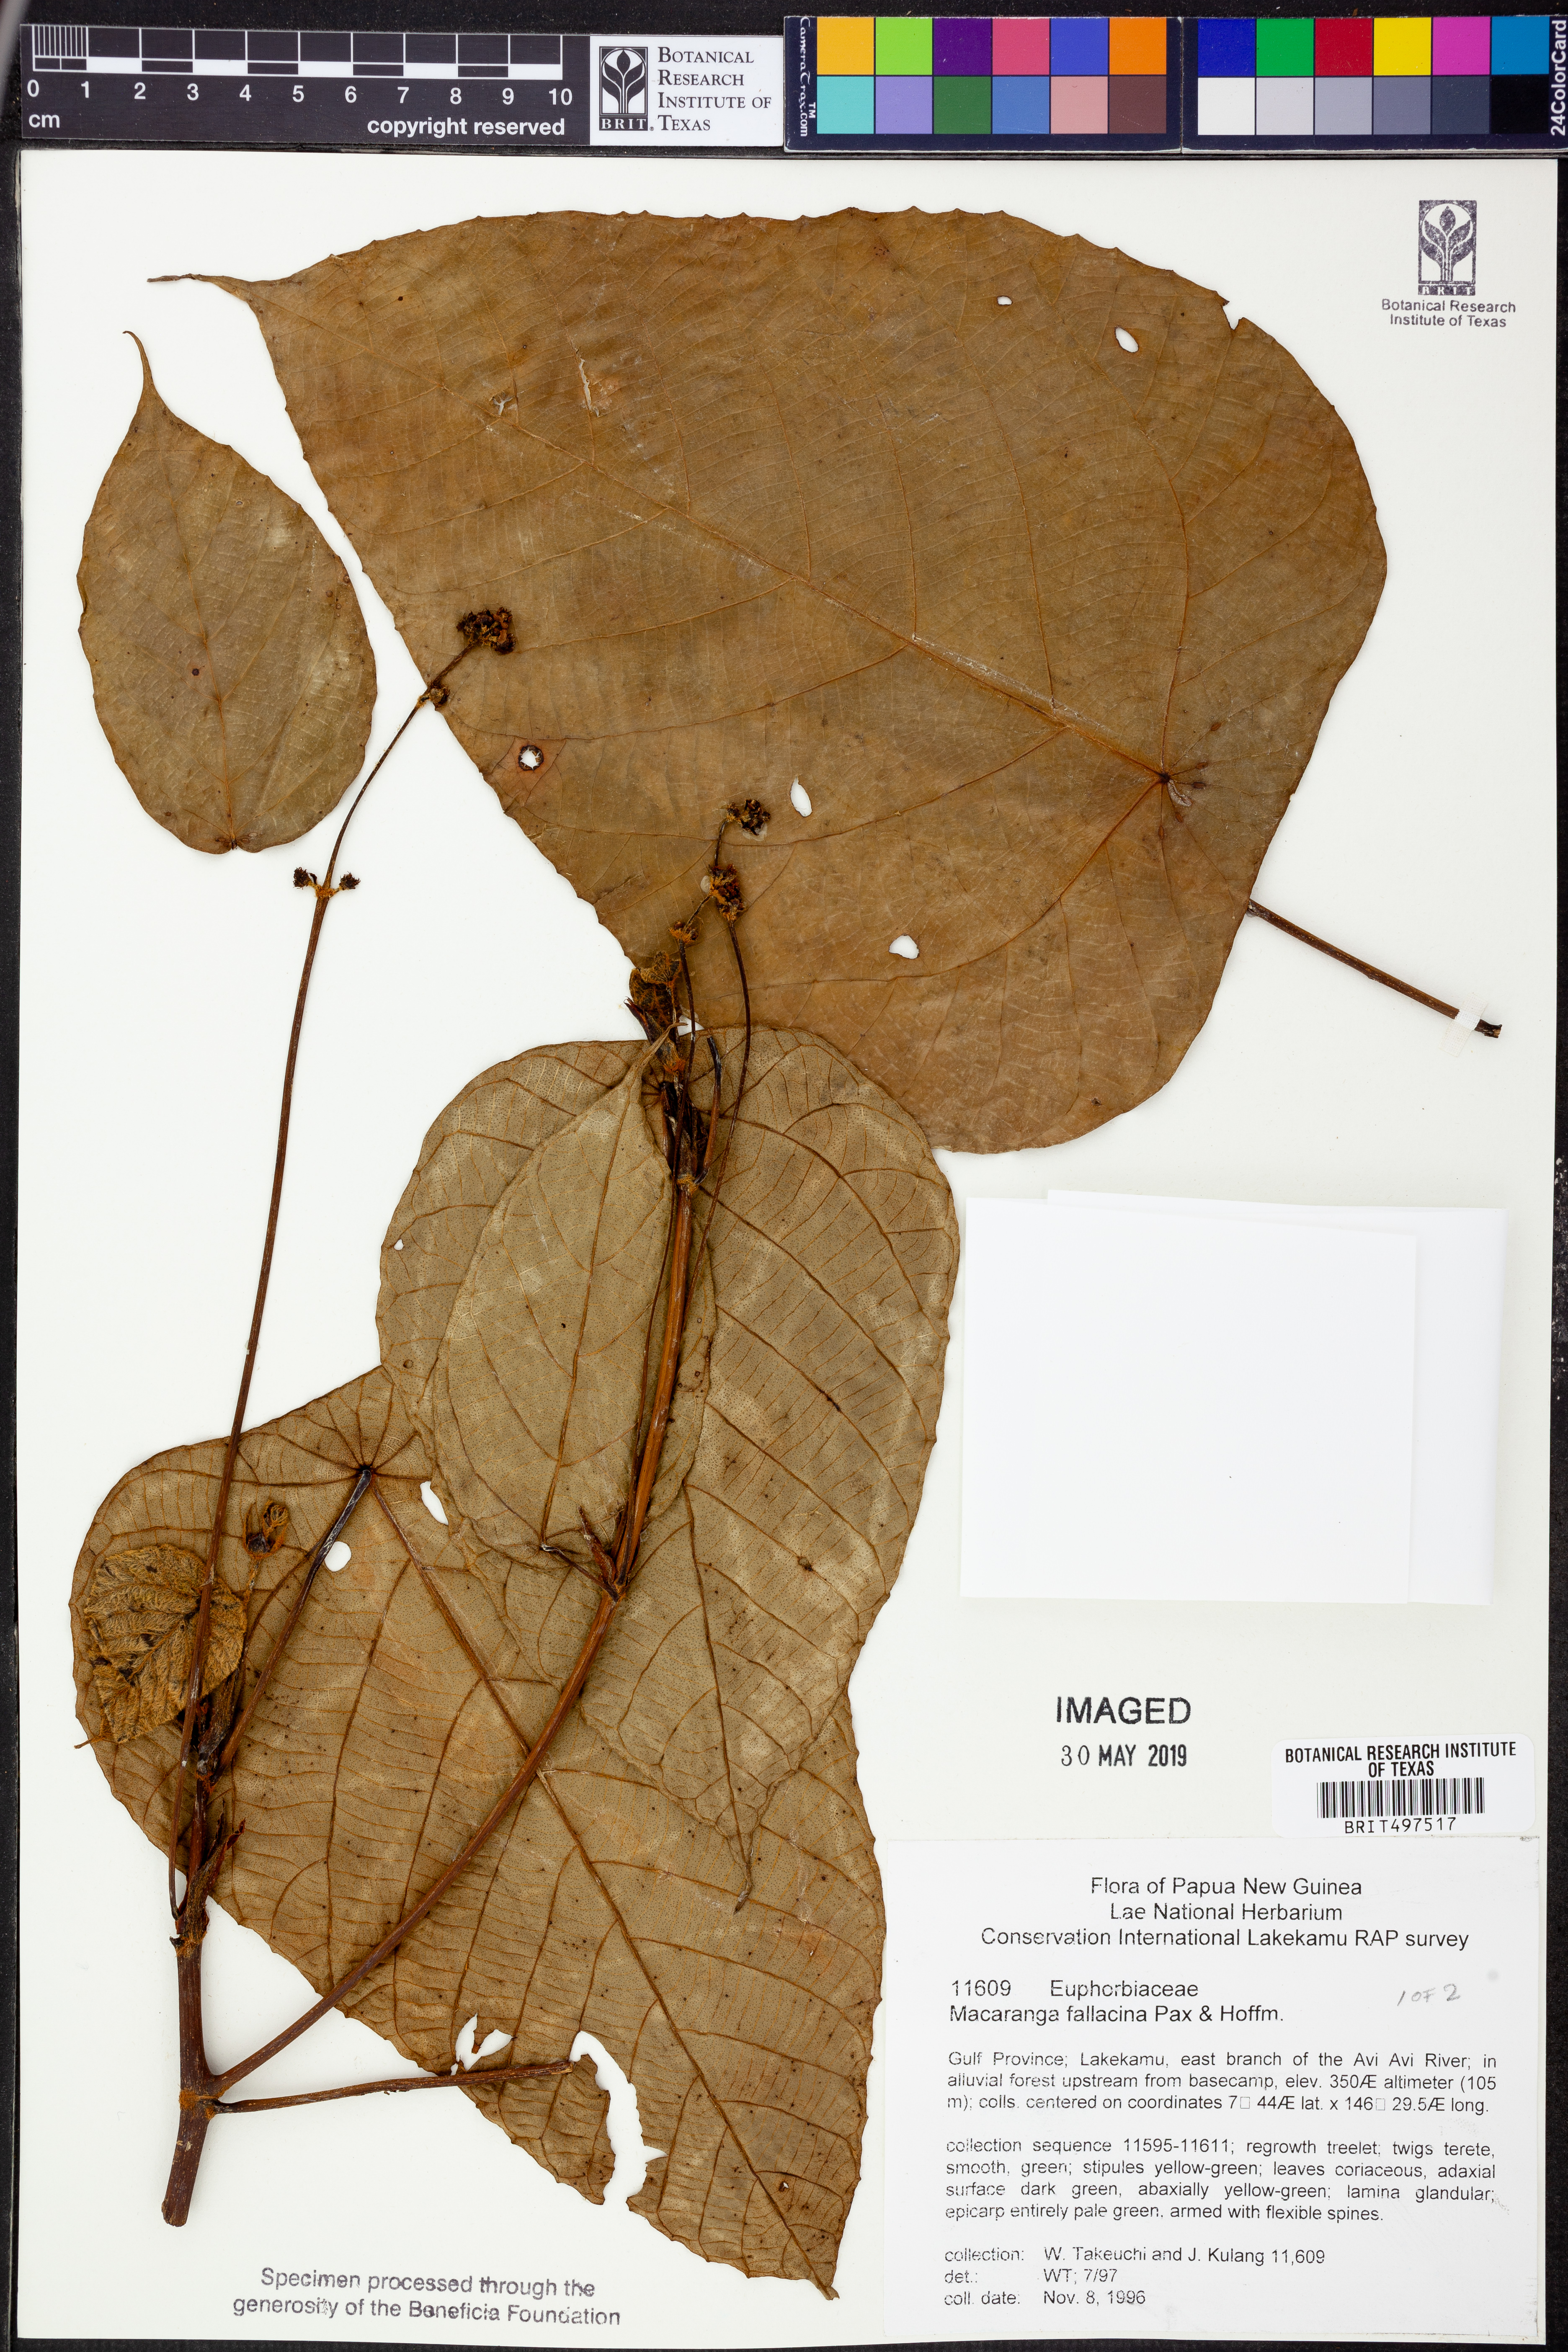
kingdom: Plantae
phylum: Tracheophyta
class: Magnoliopsida
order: Malpighiales
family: Euphorbiaceae
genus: Macaranga
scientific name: Macaranga fallacina
